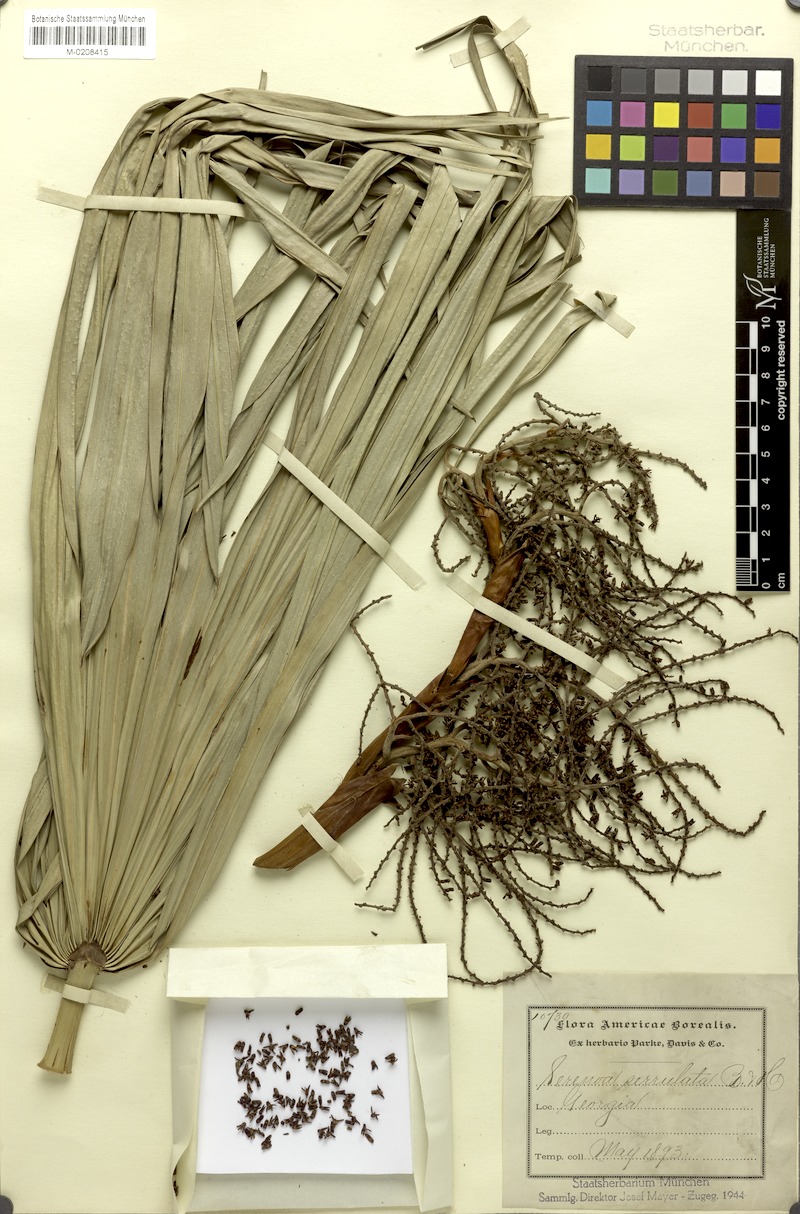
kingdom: Plantae
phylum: Tracheophyta
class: Liliopsida
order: Arecales
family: Arecaceae
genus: Serenoa
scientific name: Serenoa repens
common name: Saw-palmetto
